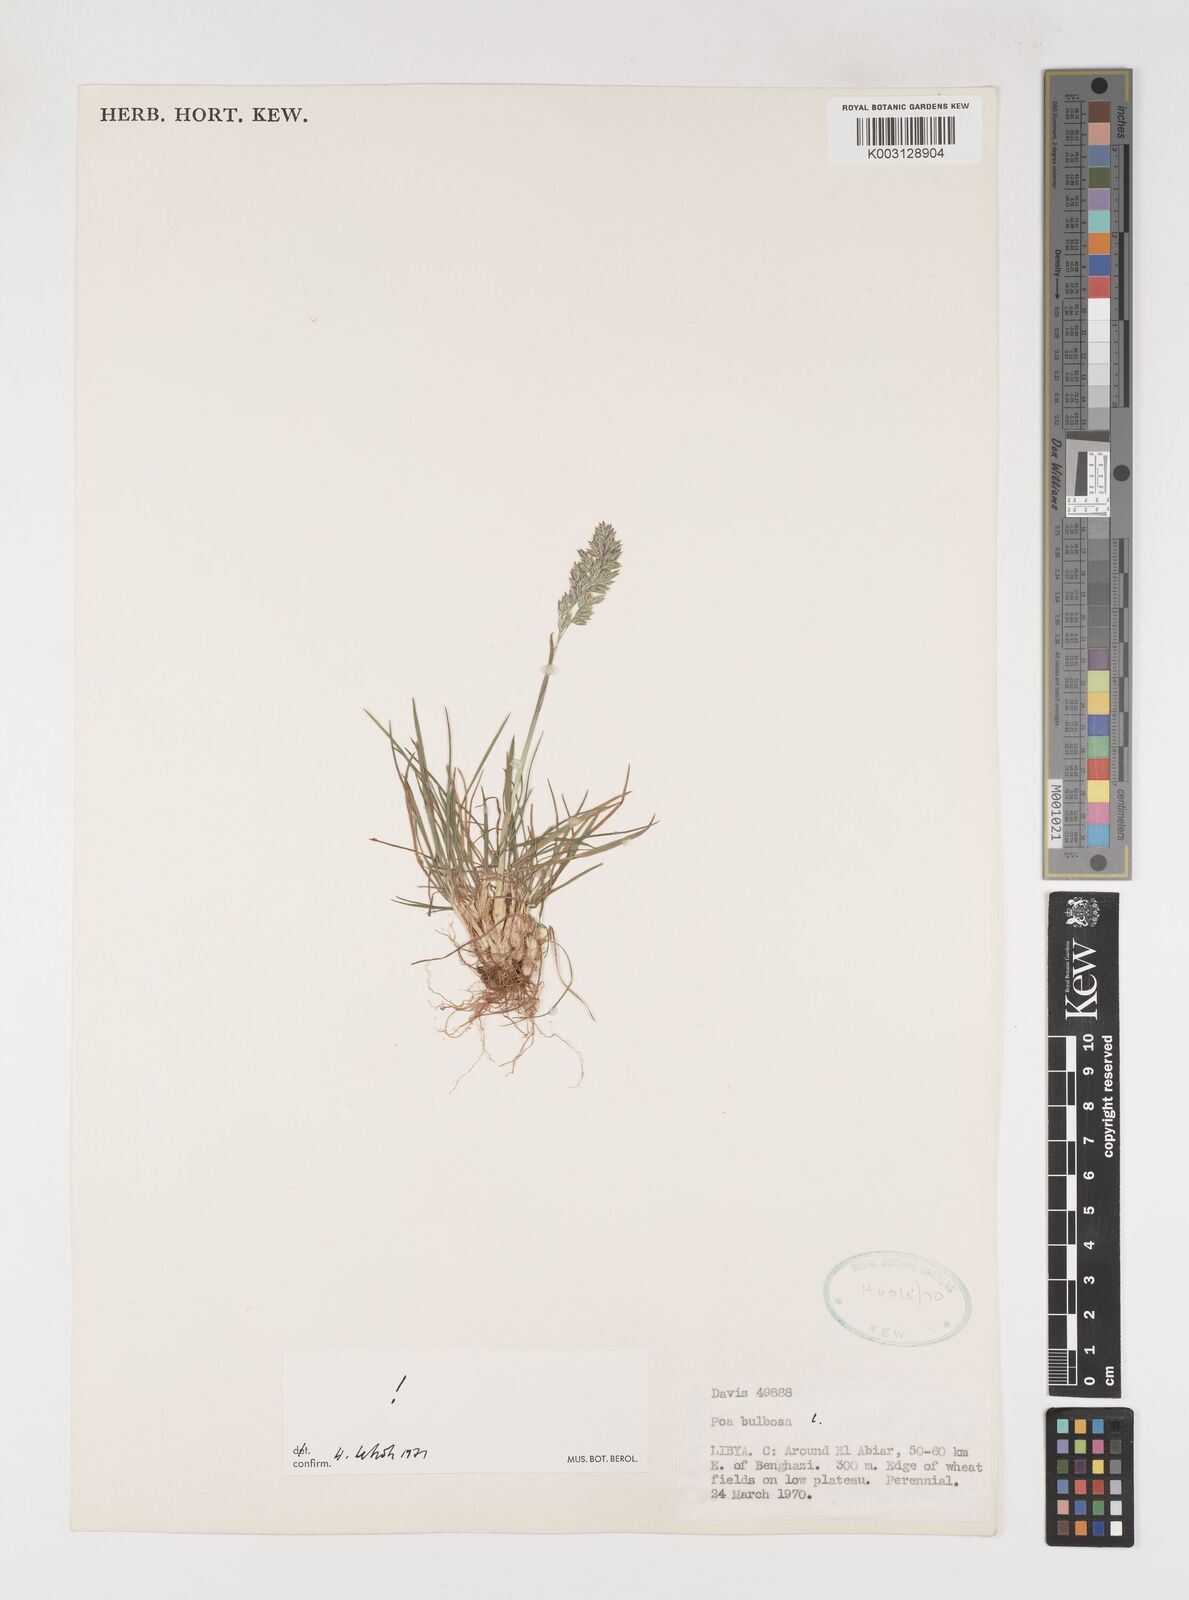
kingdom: Plantae
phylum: Tracheophyta
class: Liliopsida
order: Poales
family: Poaceae
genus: Poa
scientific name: Poa bulbosa
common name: Bulbous bluegrass
